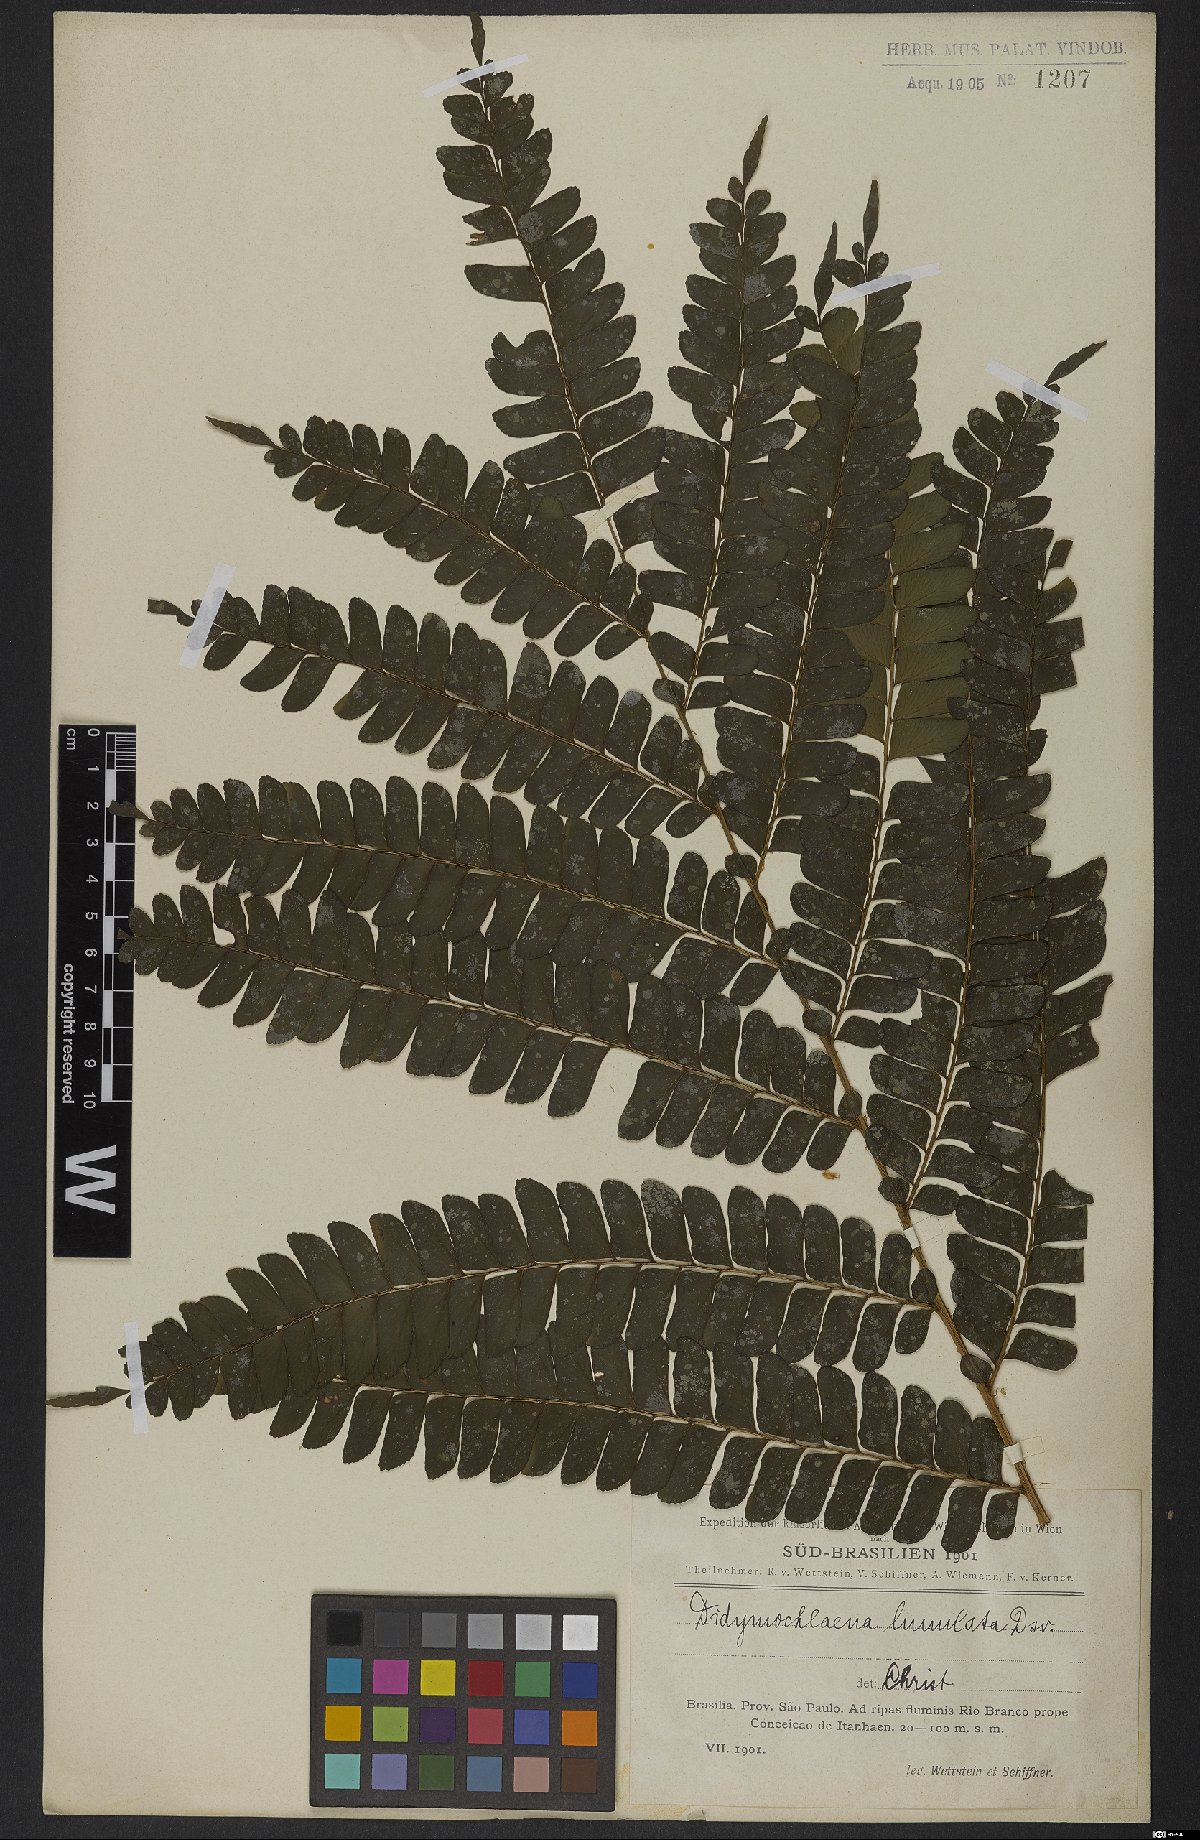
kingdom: Plantae
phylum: Tracheophyta
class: Polypodiopsida
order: Polypodiales
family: Didymochlaenaceae
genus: Didymochlaena
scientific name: Didymochlaena truncatula
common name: Mahogany fern
